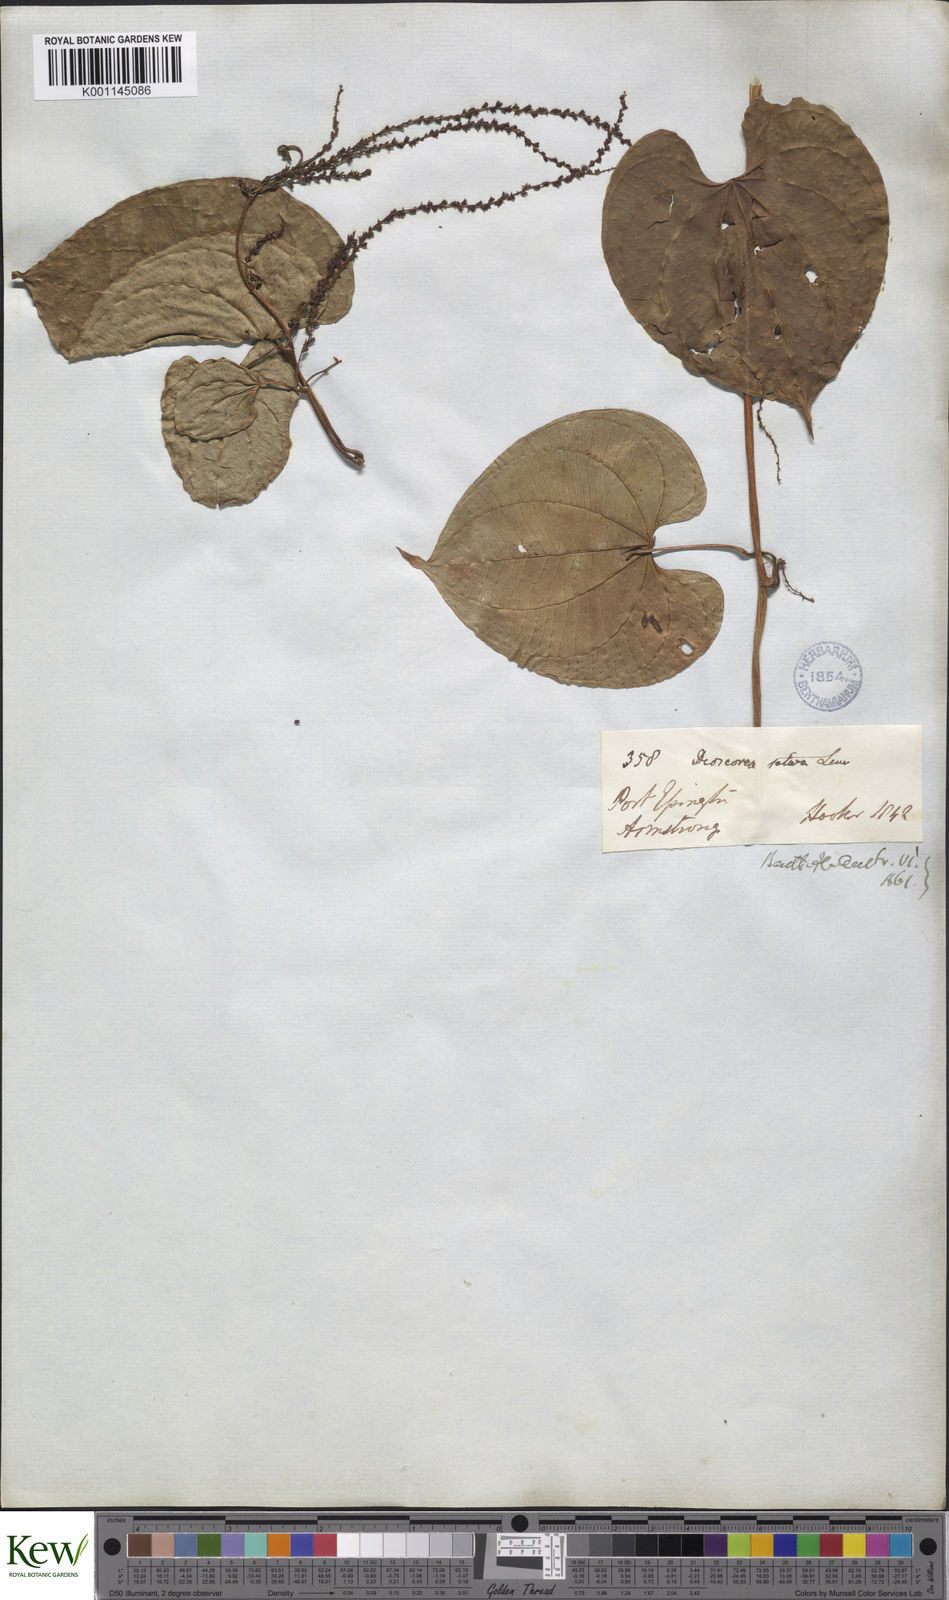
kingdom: Plantae
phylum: Tracheophyta
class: Liliopsida
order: Dioscoreales
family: Dioscoreaceae
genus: Dioscorea
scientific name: Dioscorea bulbifera
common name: Air yam
